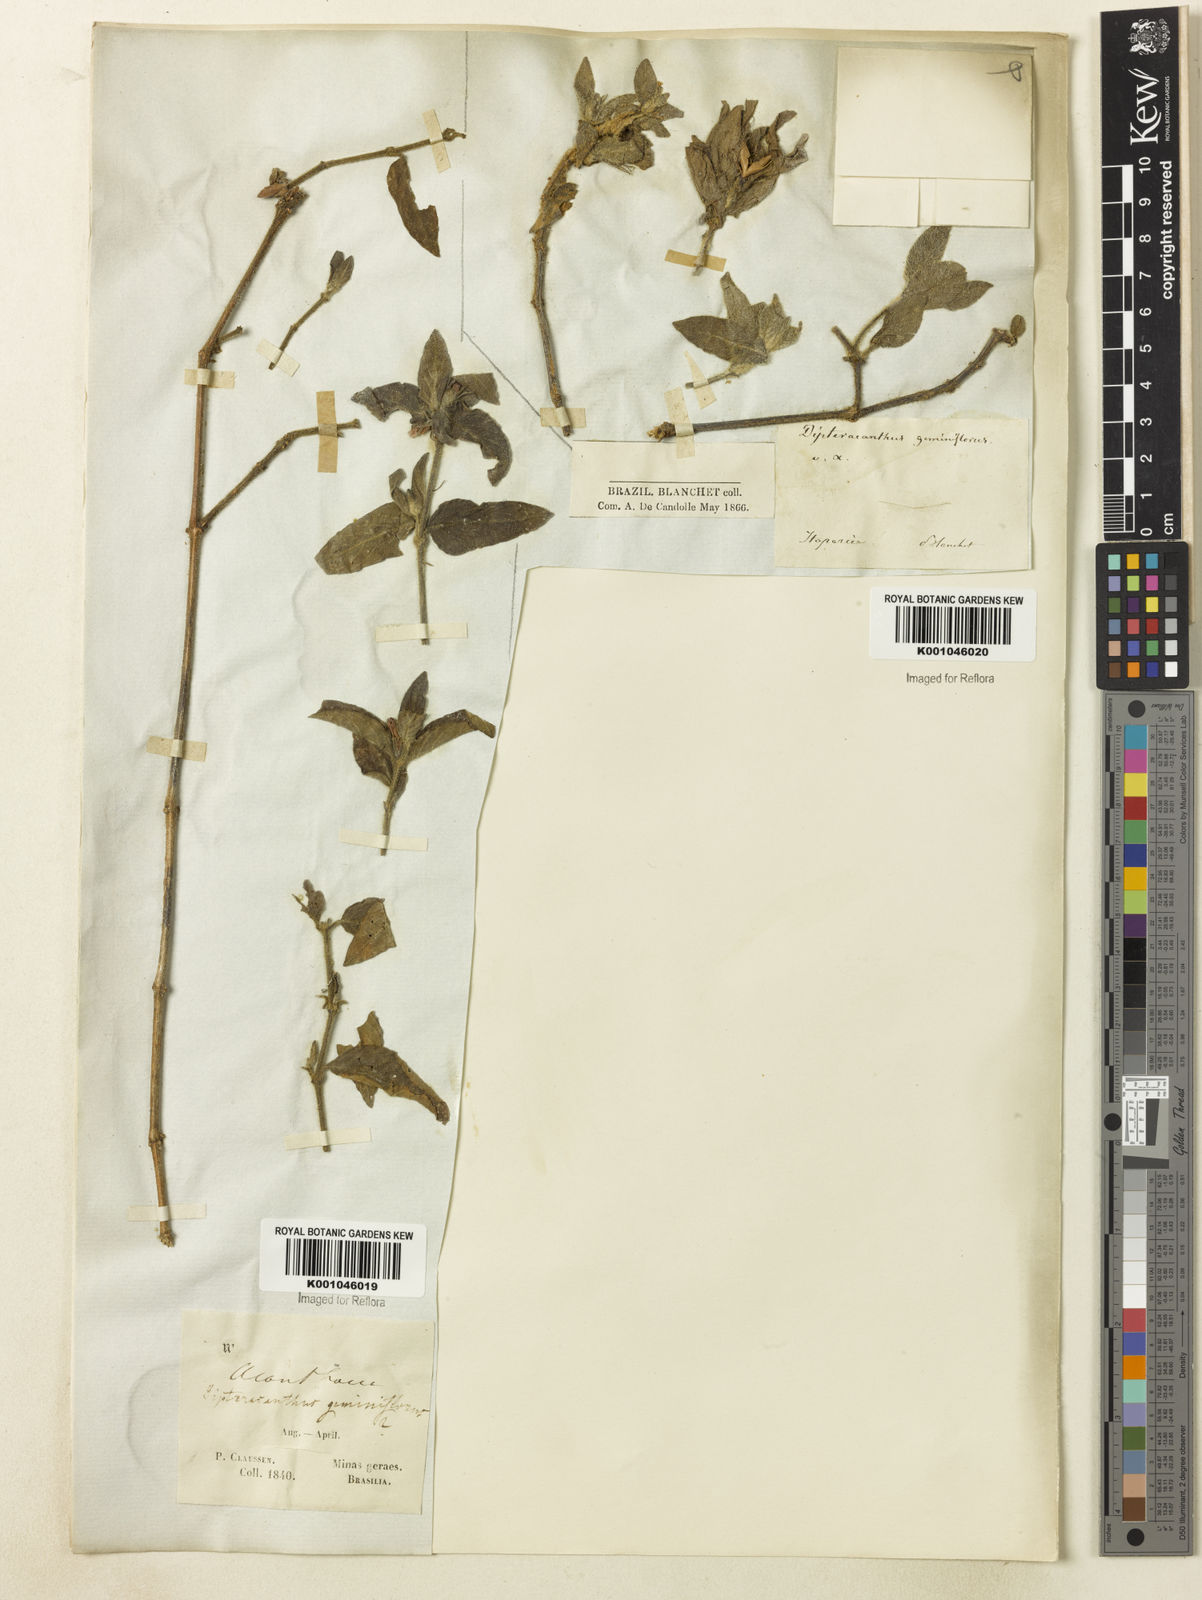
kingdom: Plantae
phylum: Tracheophyta
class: Magnoliopsida
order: Lamiales
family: Acanthaceae
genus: Ruellia
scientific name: Ruellia geminiflora
